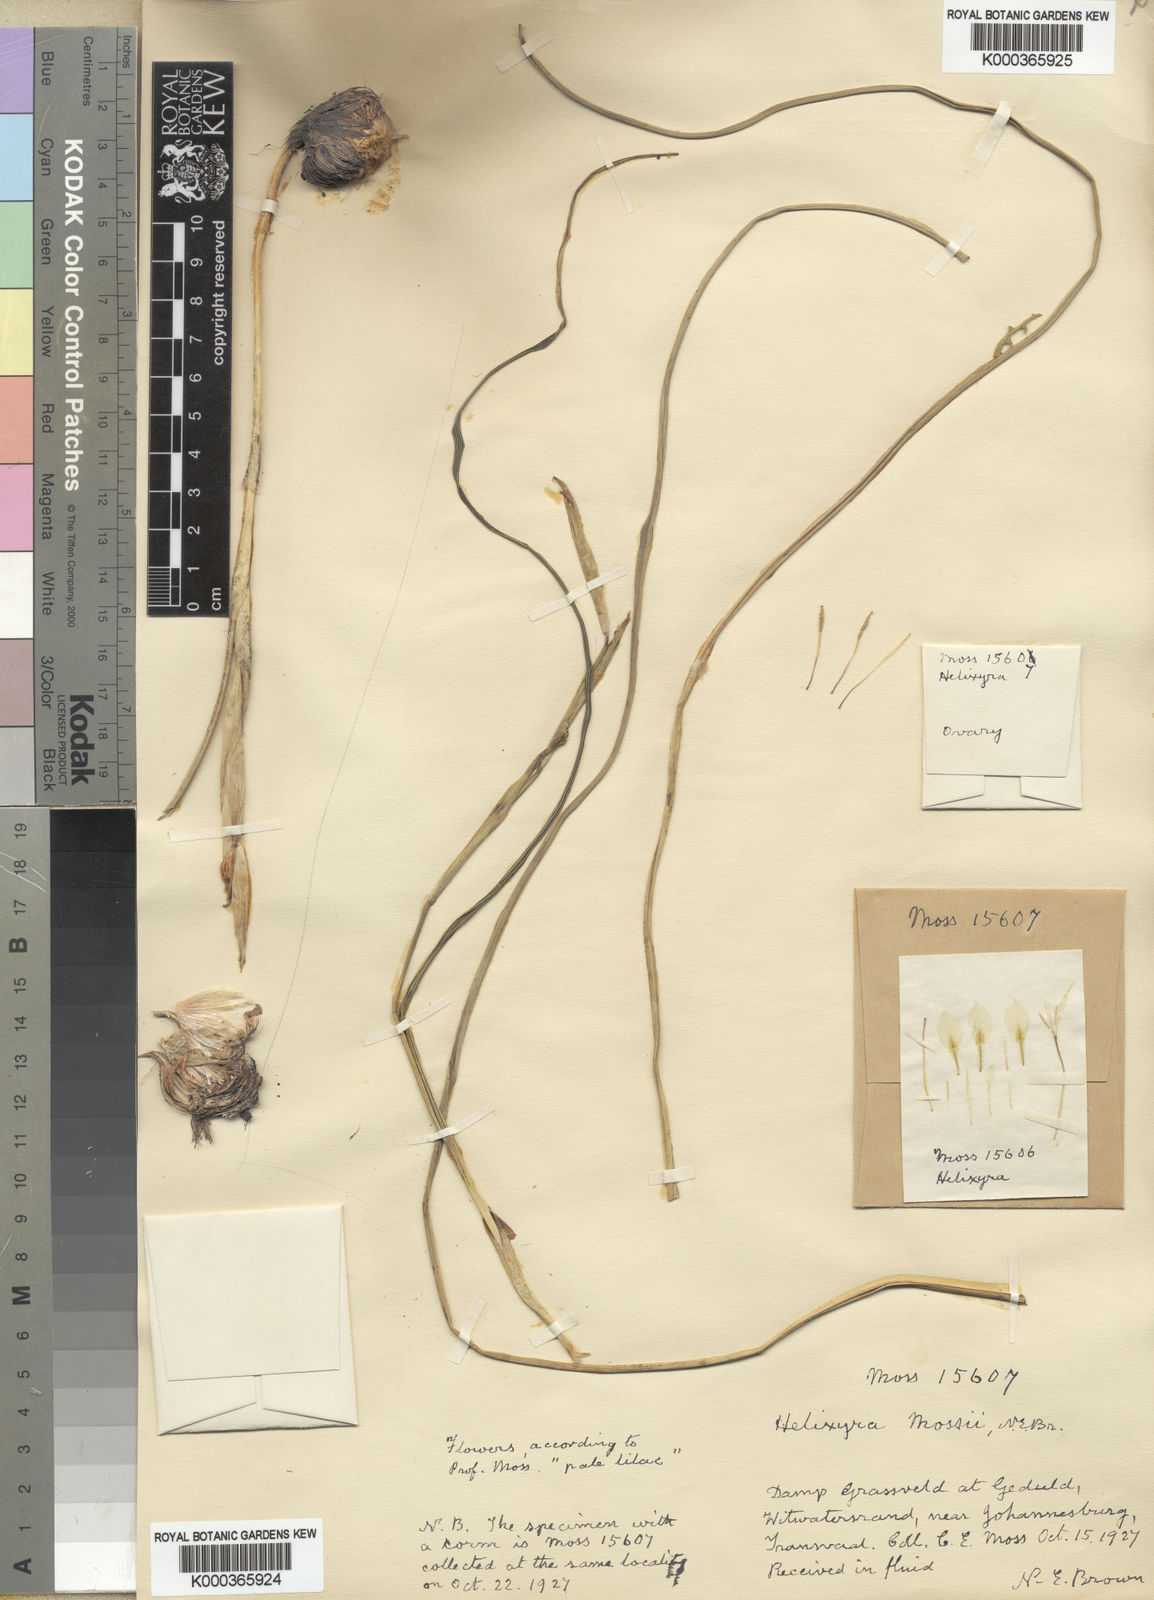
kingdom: Plantae
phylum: Tracheophyta
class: Liliopsida
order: Asparagales
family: Iridaceae
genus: Moraea
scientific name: Moraea simulans
